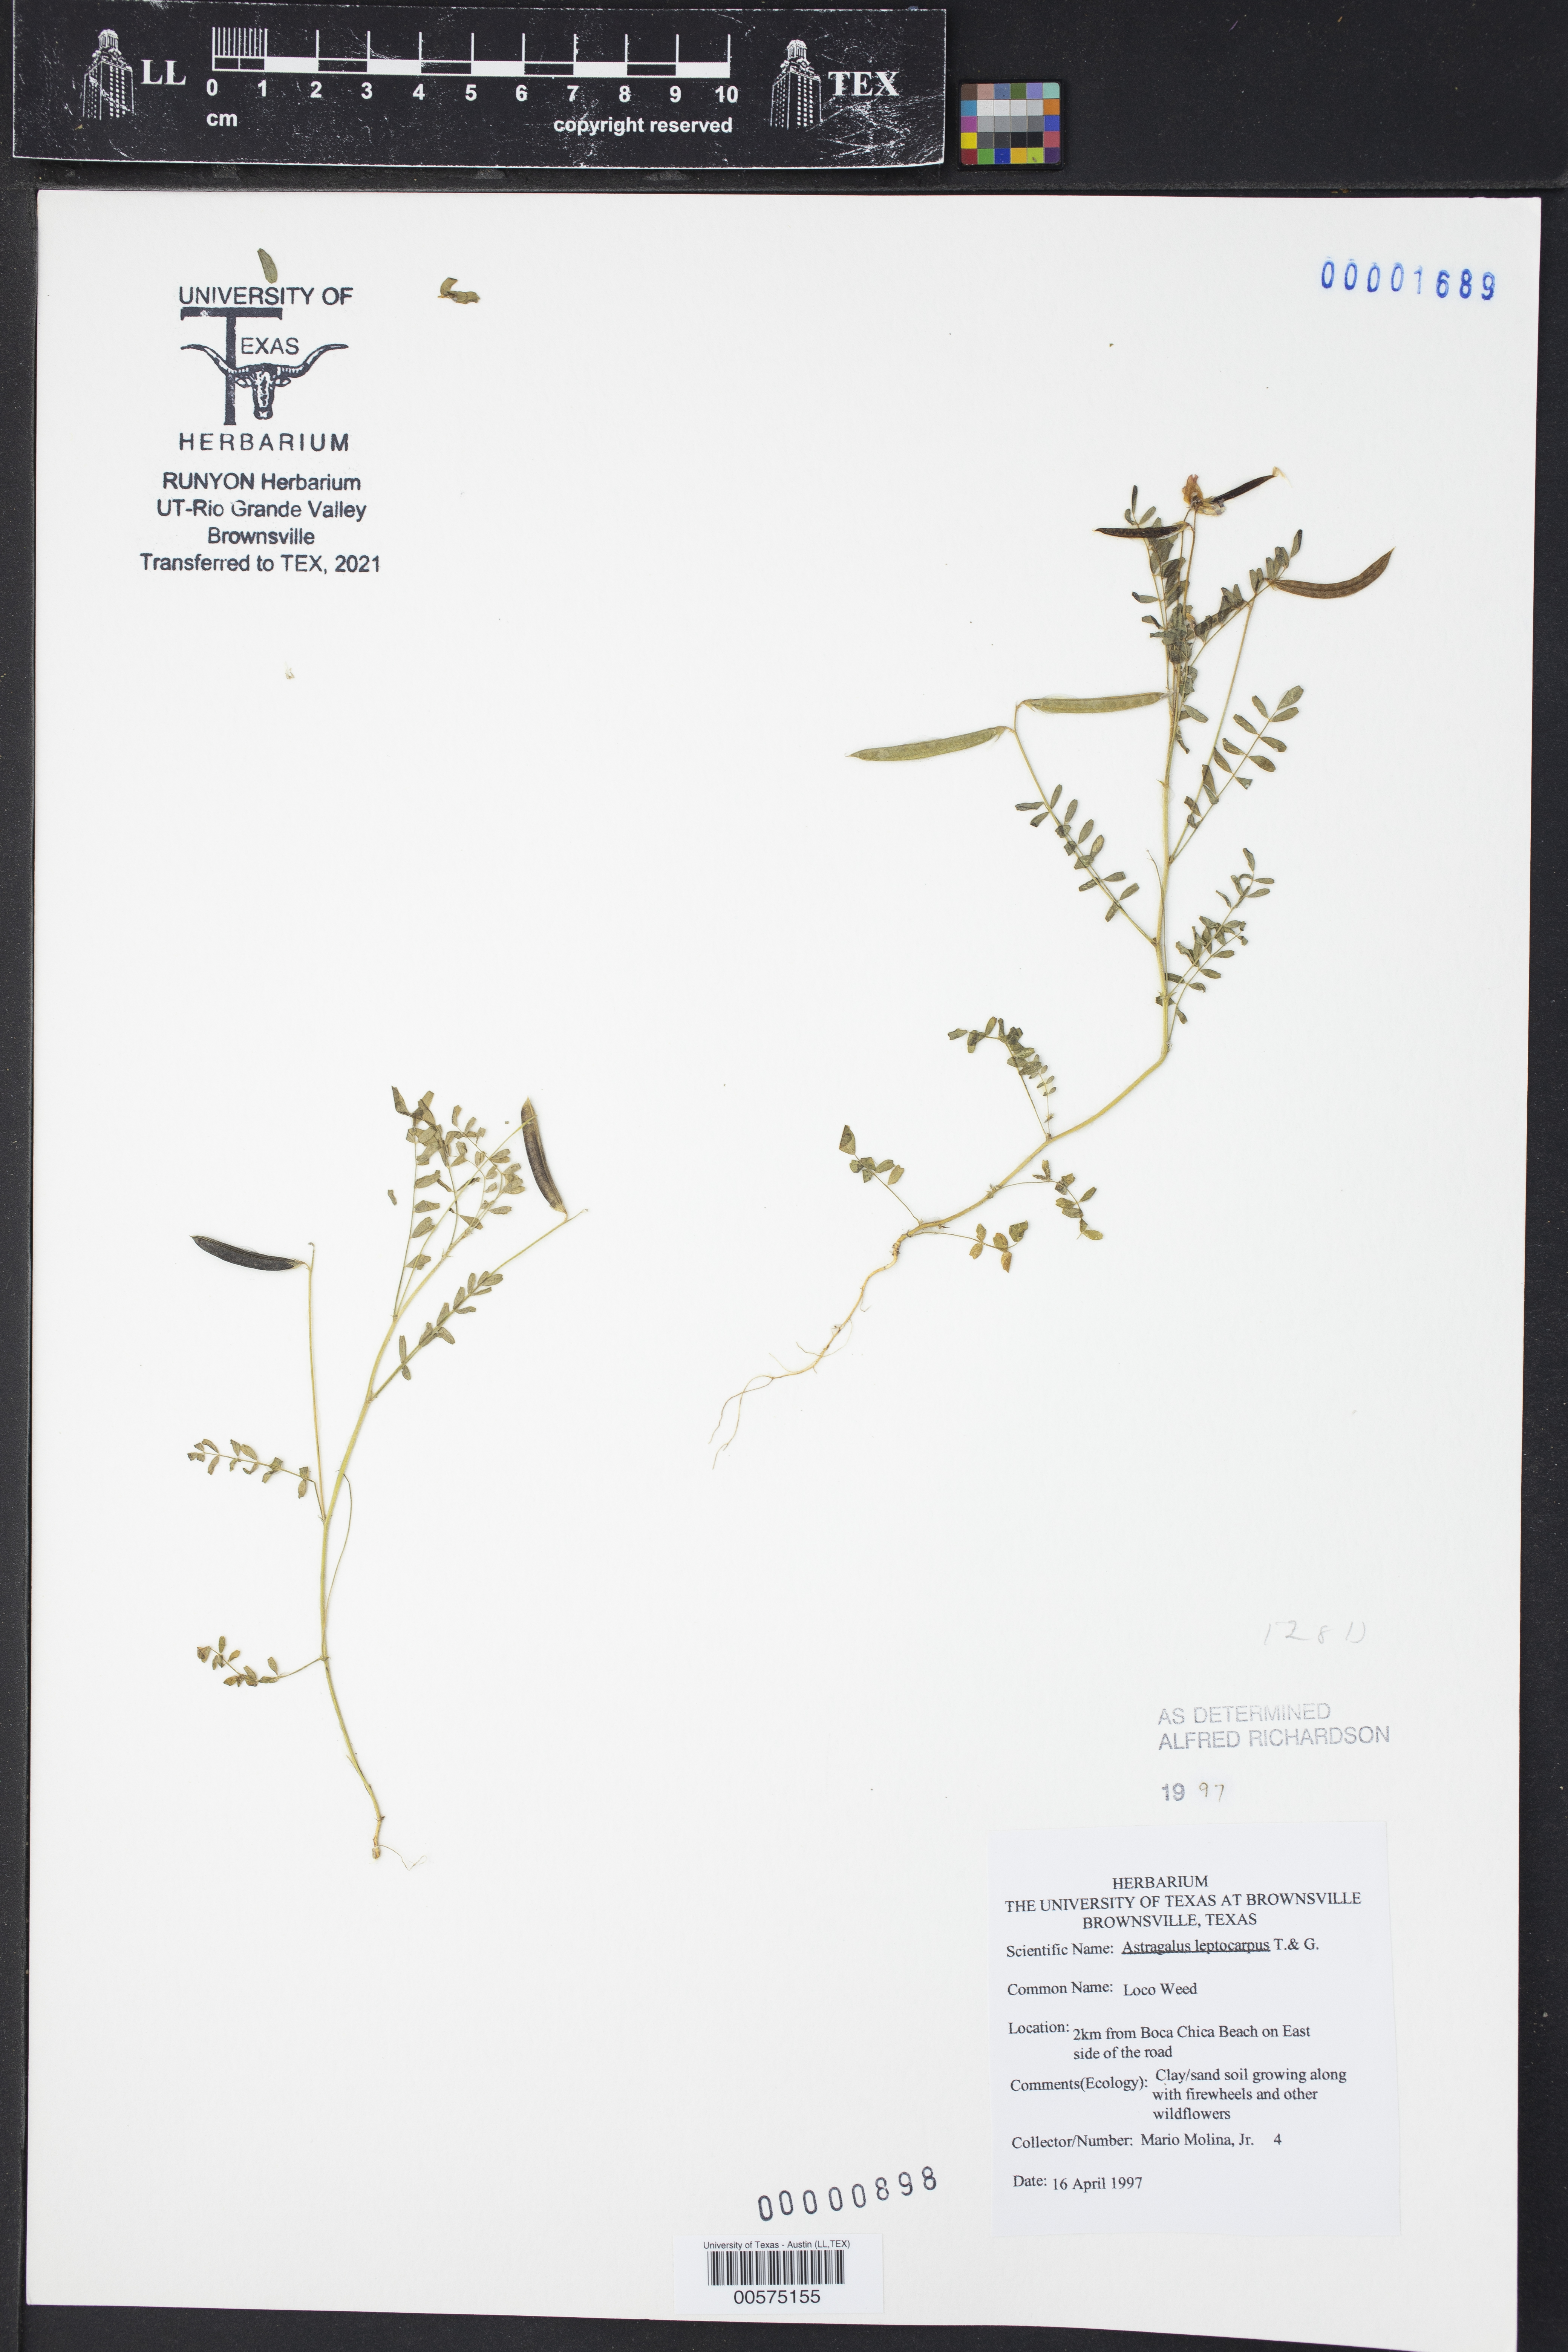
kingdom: Plantae
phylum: Tracheophyta
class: Magnoliopsida
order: Fabales
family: Fabaceae
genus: Astragalus
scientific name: Astragalus leptocarpus
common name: Bodkin milk-vetch
